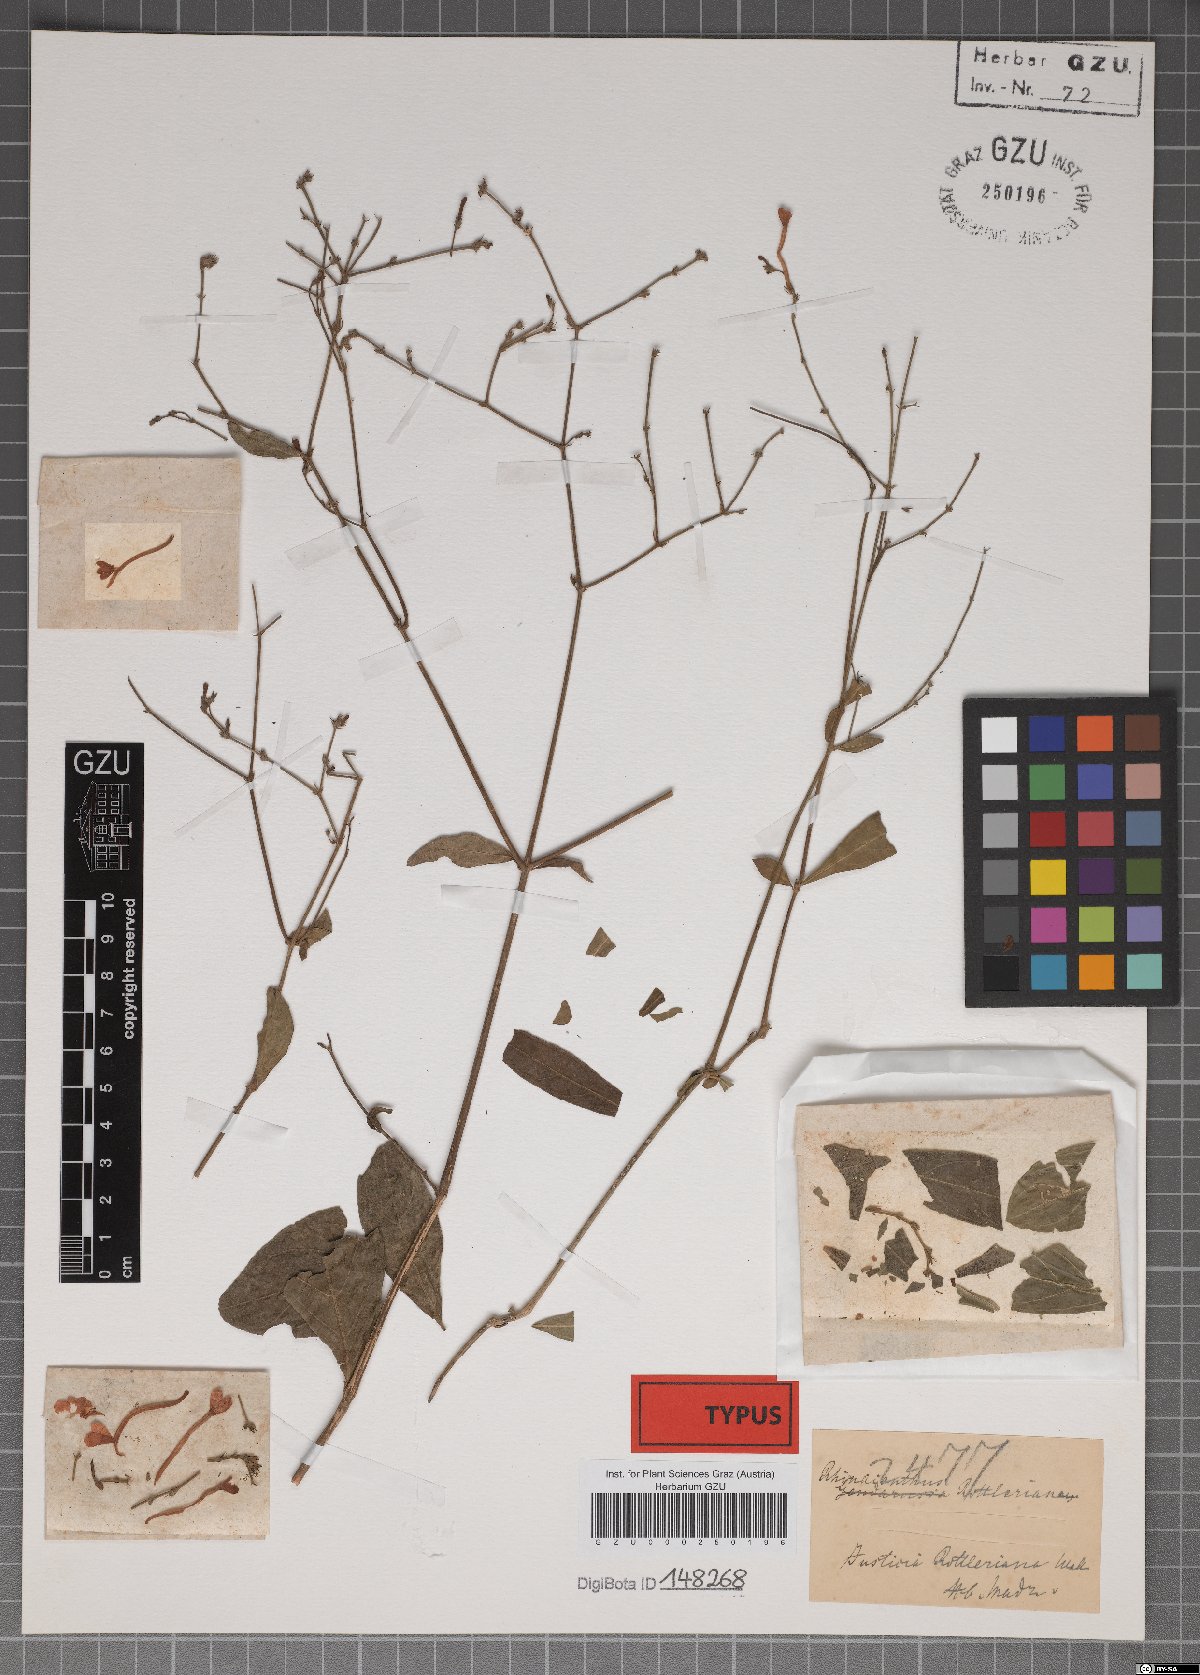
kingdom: Plantae
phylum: Tracheophyta
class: Magnoliopsida
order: Lamiales
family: Acanthaceae
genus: Rhinacanthus
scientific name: Rhinacanthus nasutus
